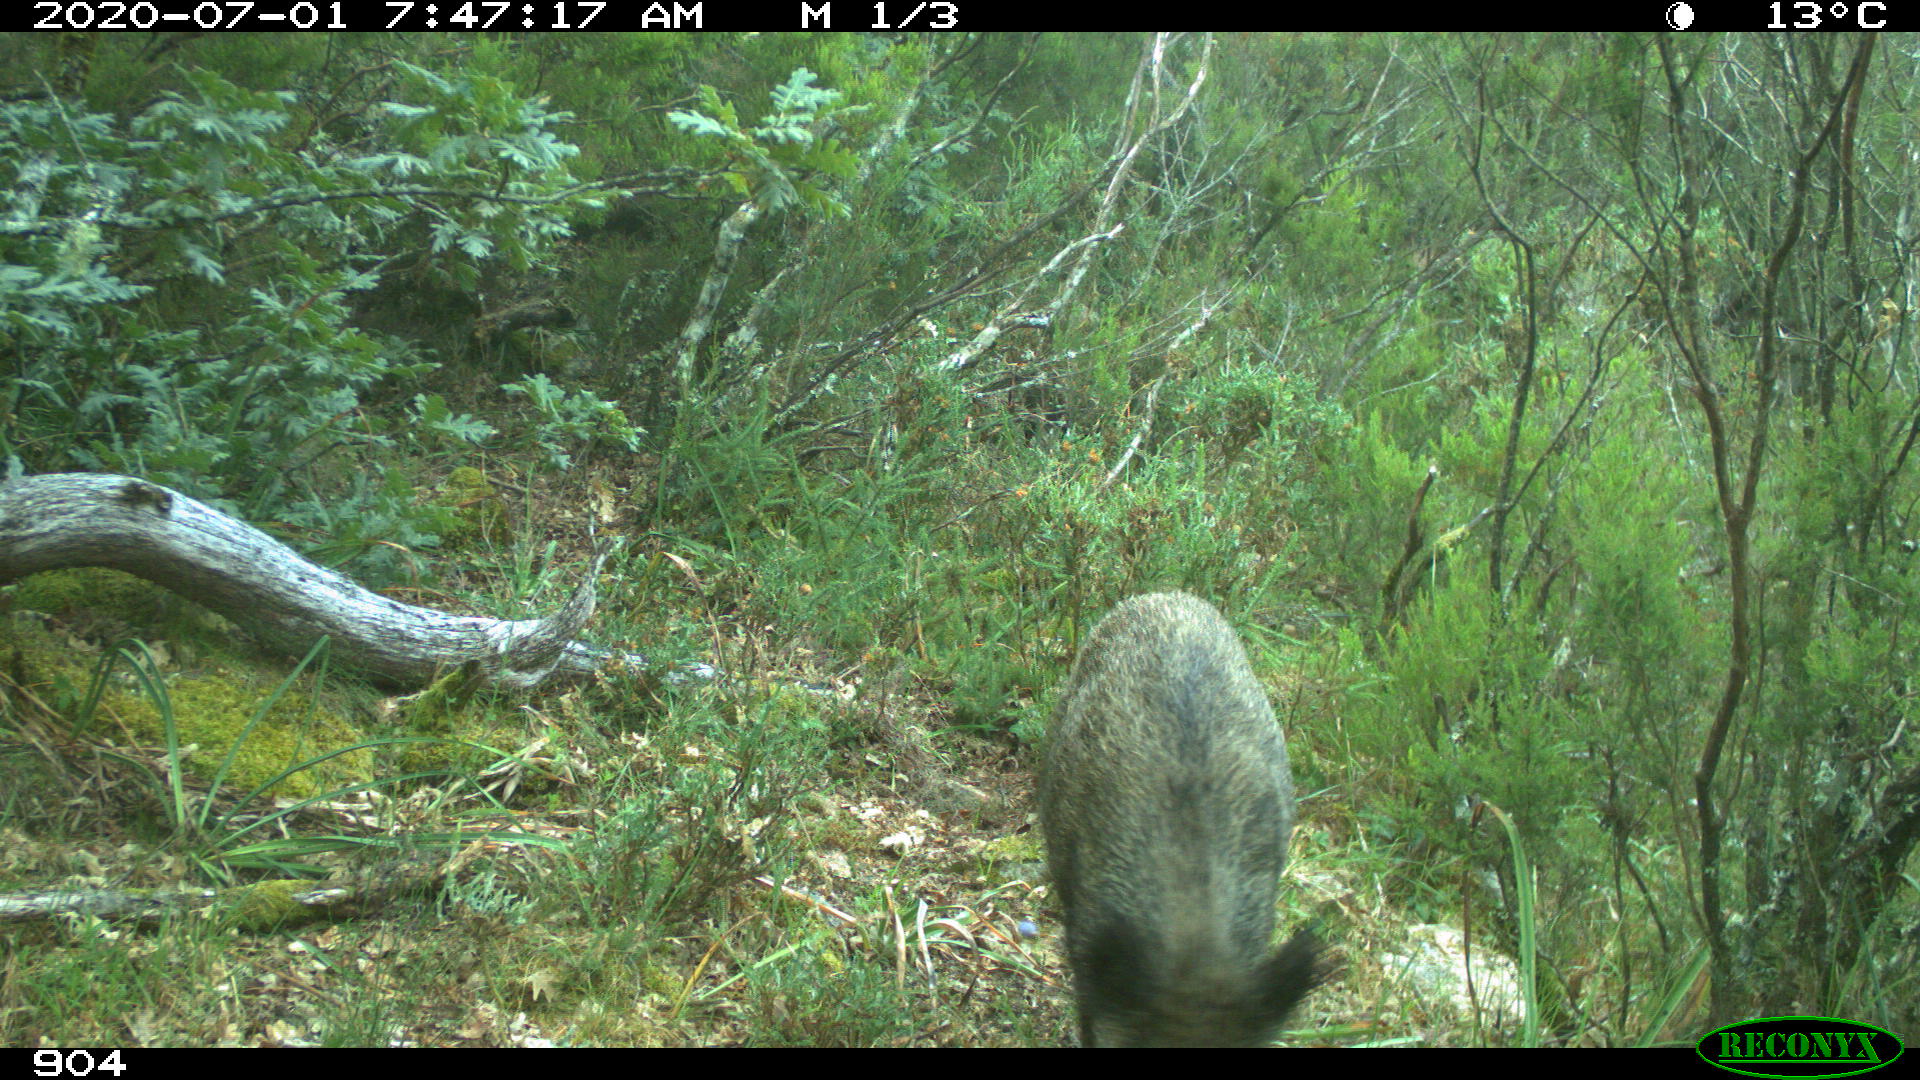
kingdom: Animalia
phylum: Chordata
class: Mammalia
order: Artiodactyla
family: Suidae
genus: Sus
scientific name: Sus scrofa
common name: Wild boar
